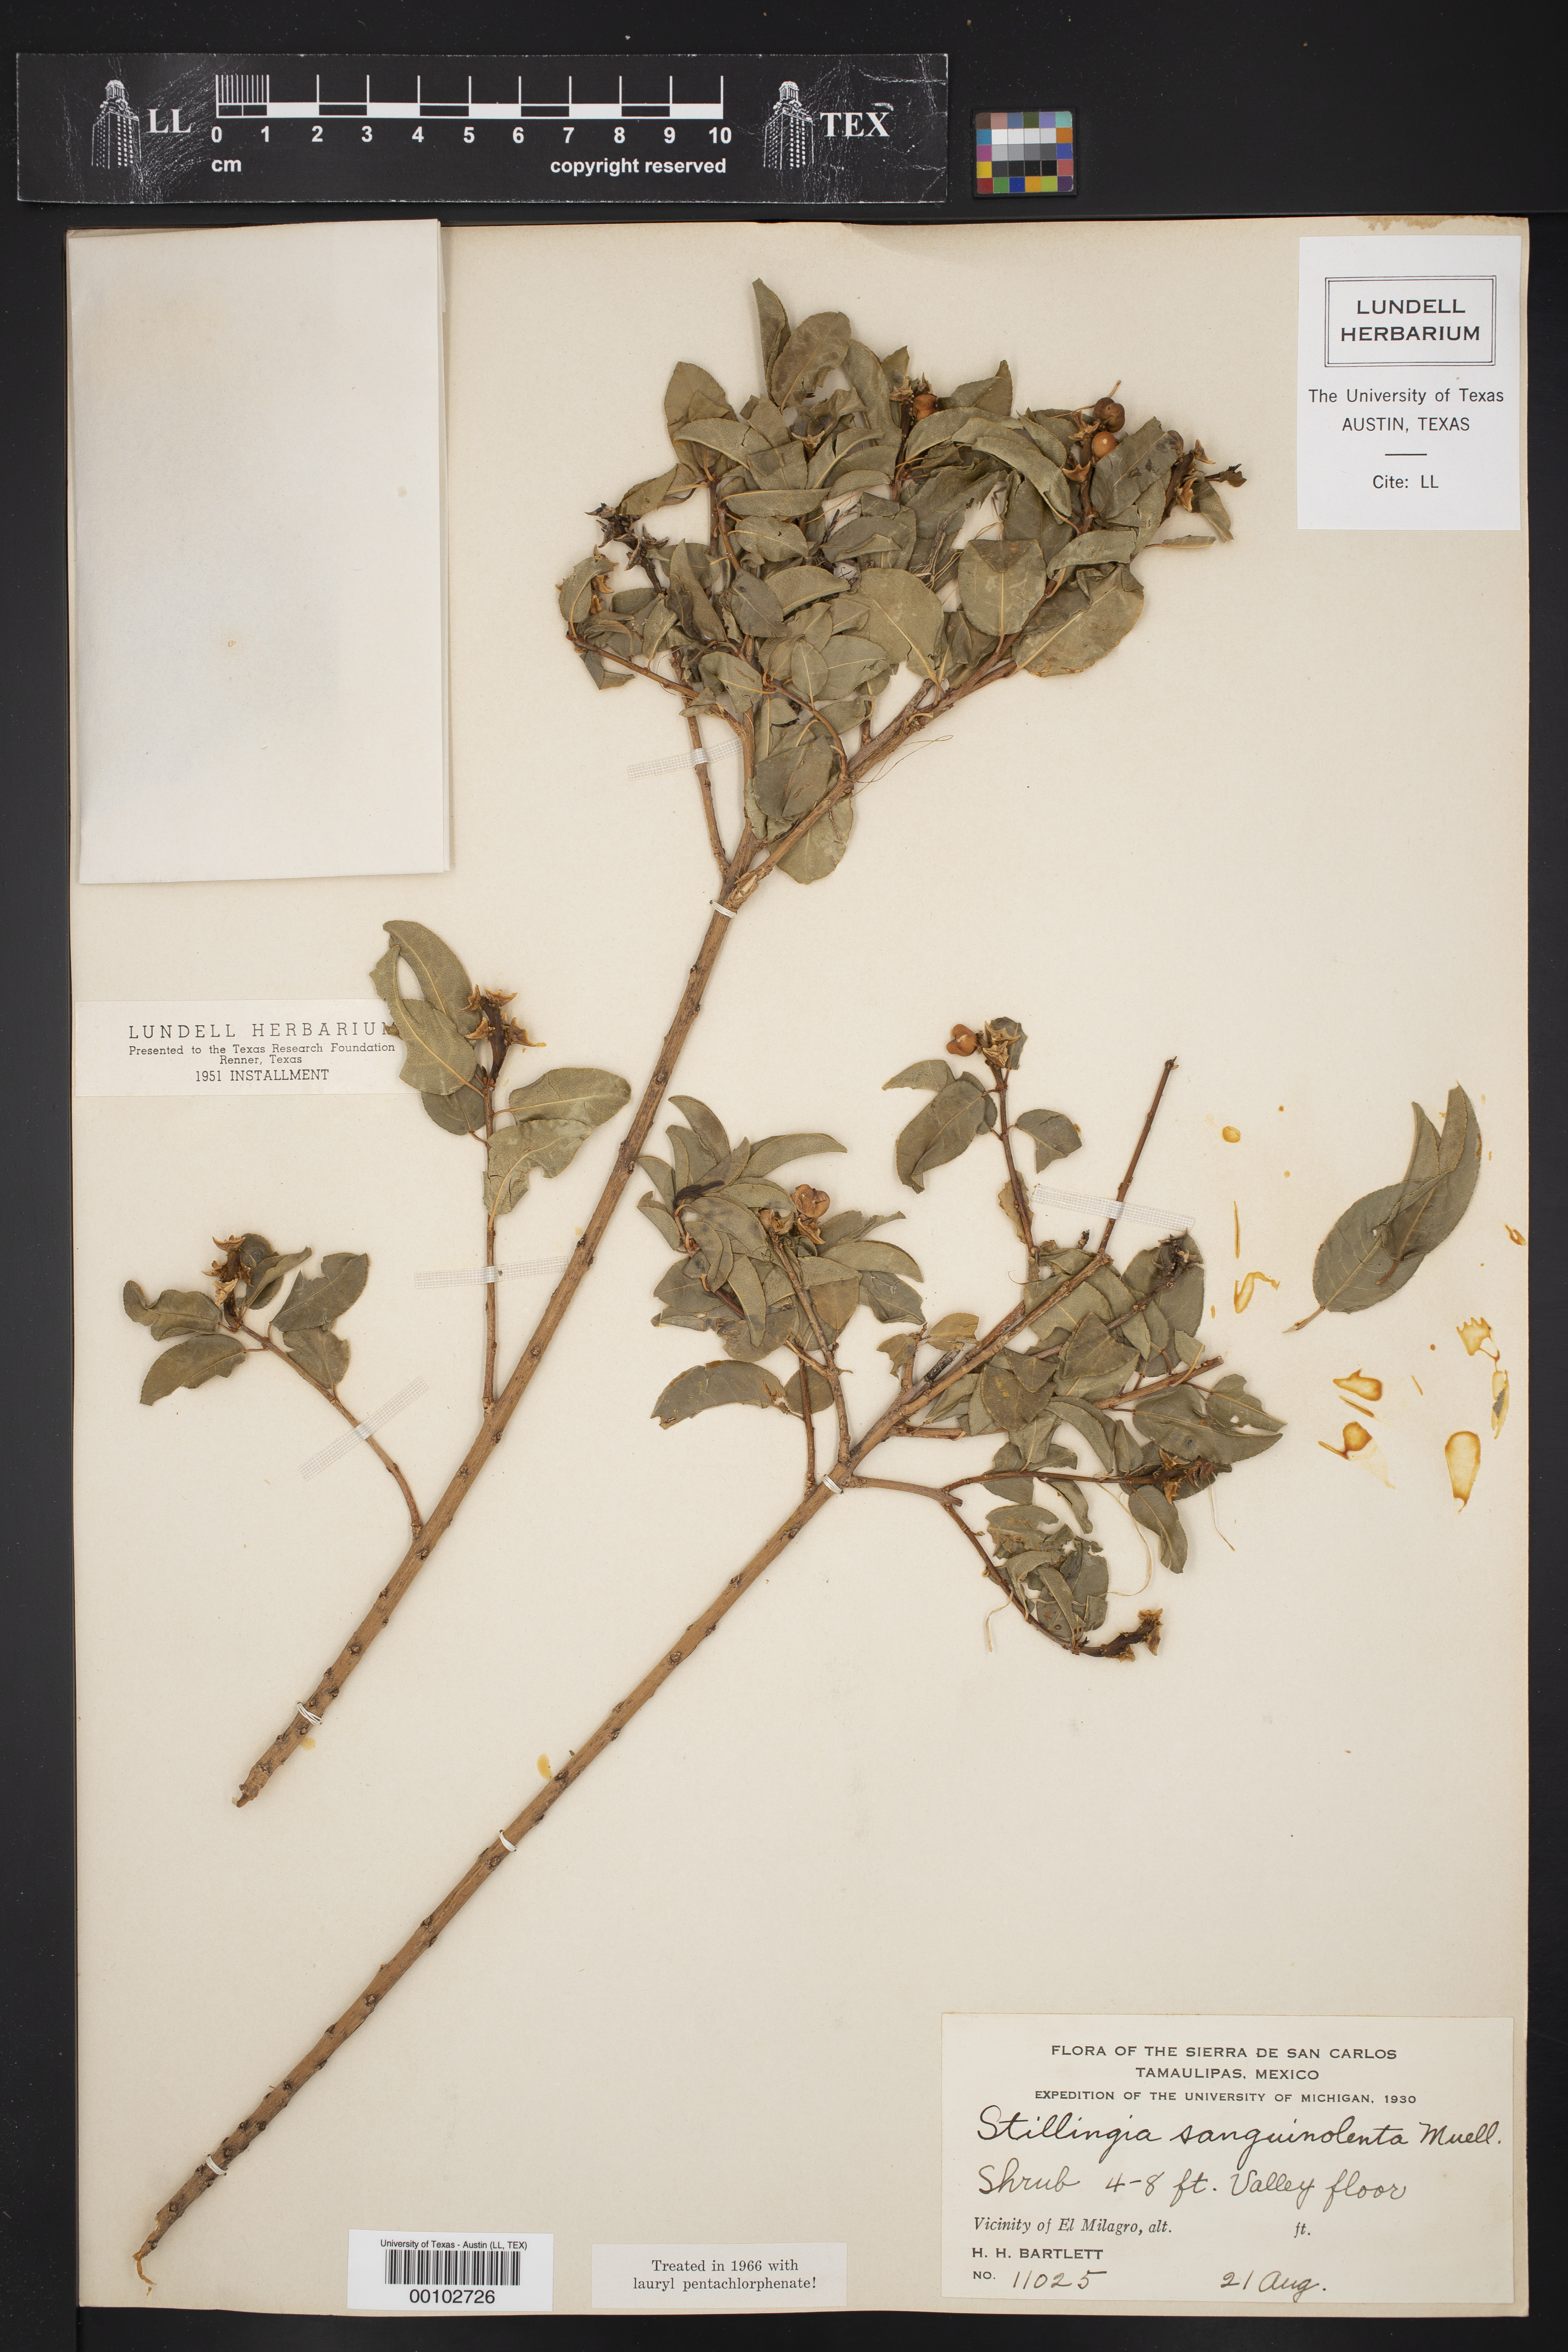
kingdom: Plantae
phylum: Tracheophyta
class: Magnoliopsida
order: Malpighiales
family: Euphorbiaceae
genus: Stillingia
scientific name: Stillingia sanguinolenta
